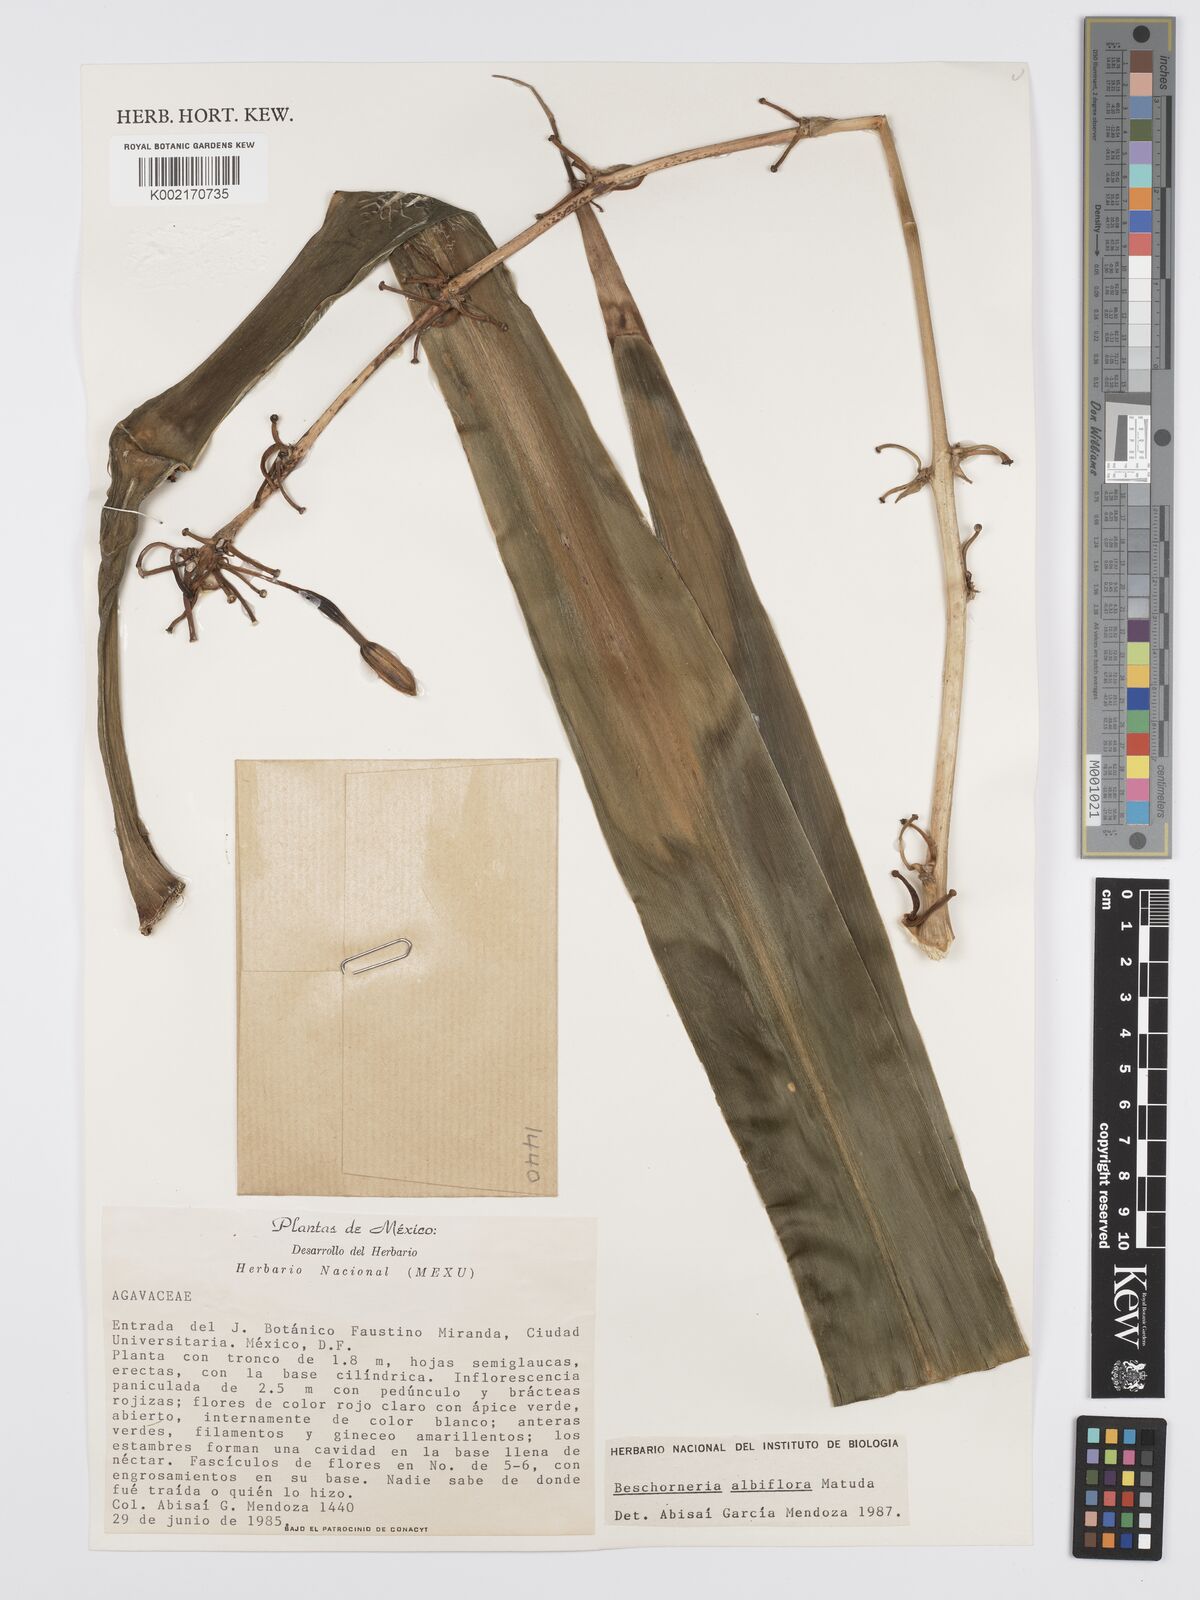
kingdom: Plantae
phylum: Tracheophyta
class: Liliopsida
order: Asparagales
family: Asparagaceae
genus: Beschorneria
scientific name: Beschorneria albiflora
